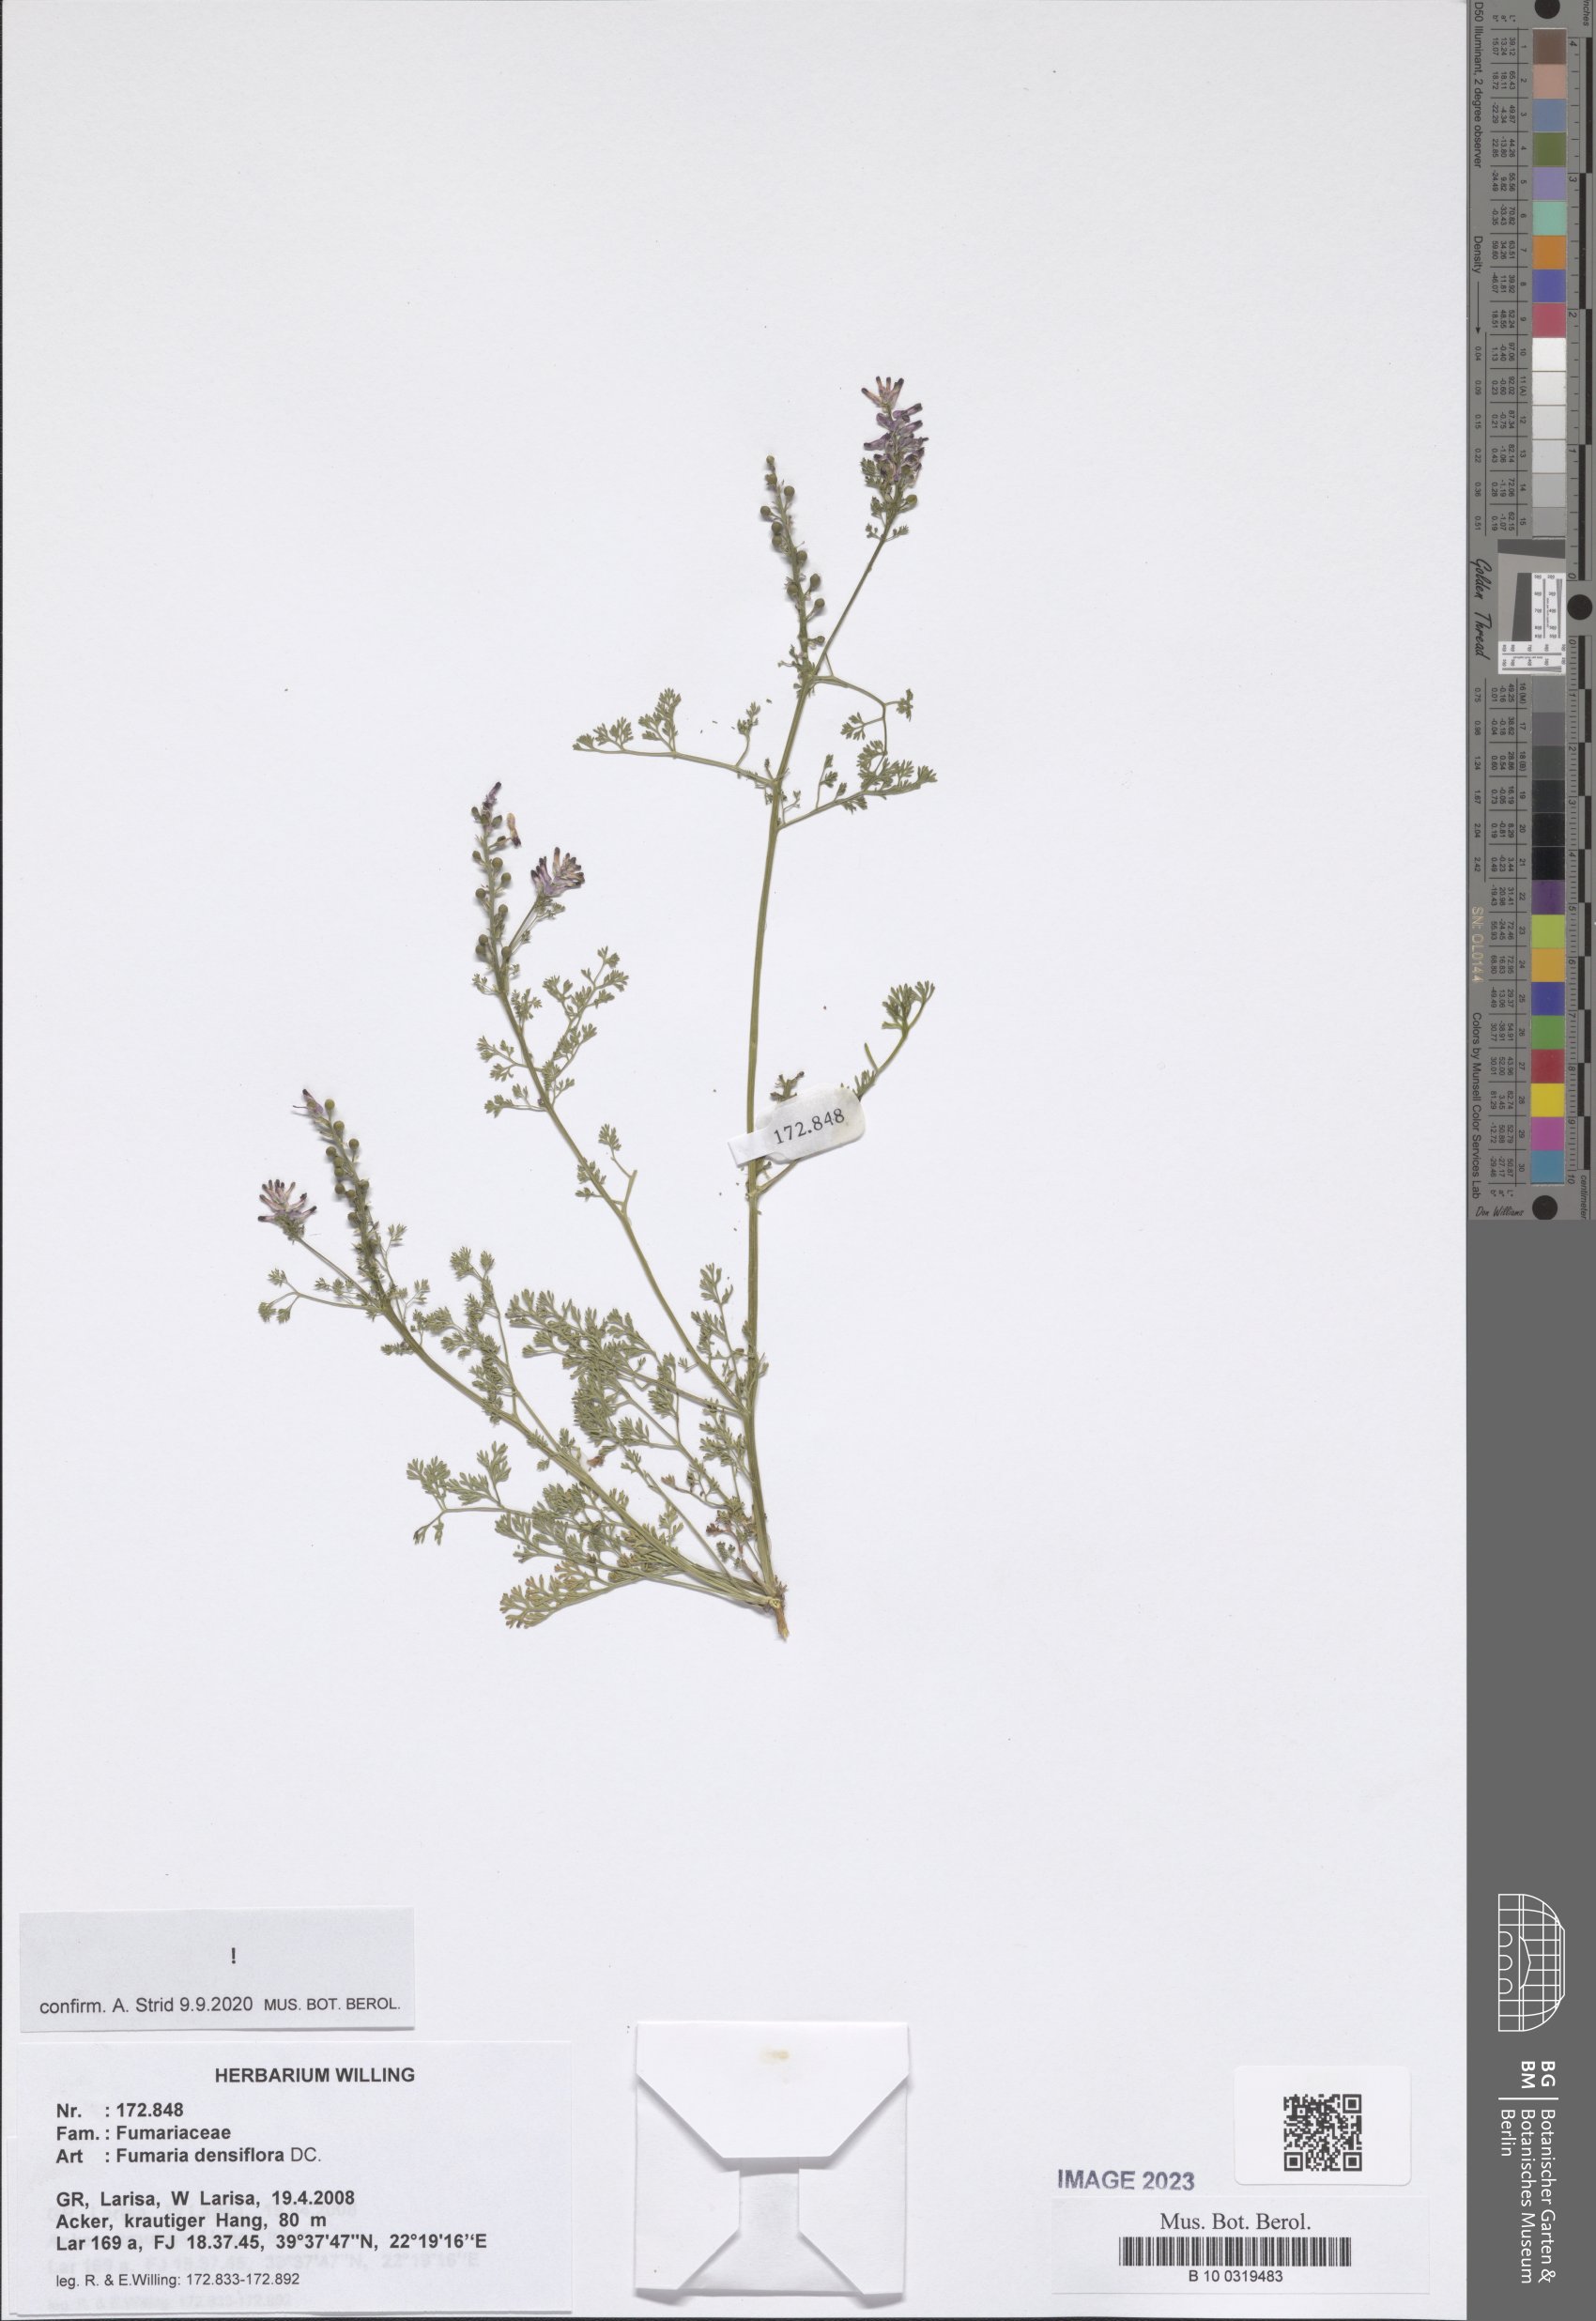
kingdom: Plantae
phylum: Tracheophyta
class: Magnoliopsida
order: Ranunculales
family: Papaveraceae
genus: Fumaria
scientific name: Fumaria densiflora
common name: Dense-flowered fumitory
